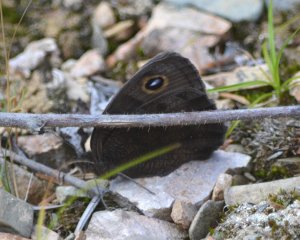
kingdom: Animalia
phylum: Arthropoda
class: Insecta
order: Lepidoptera
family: Nymphalidae
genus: Cercyonis
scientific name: Cercyonis pegala
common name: Common Wood-Nymph
